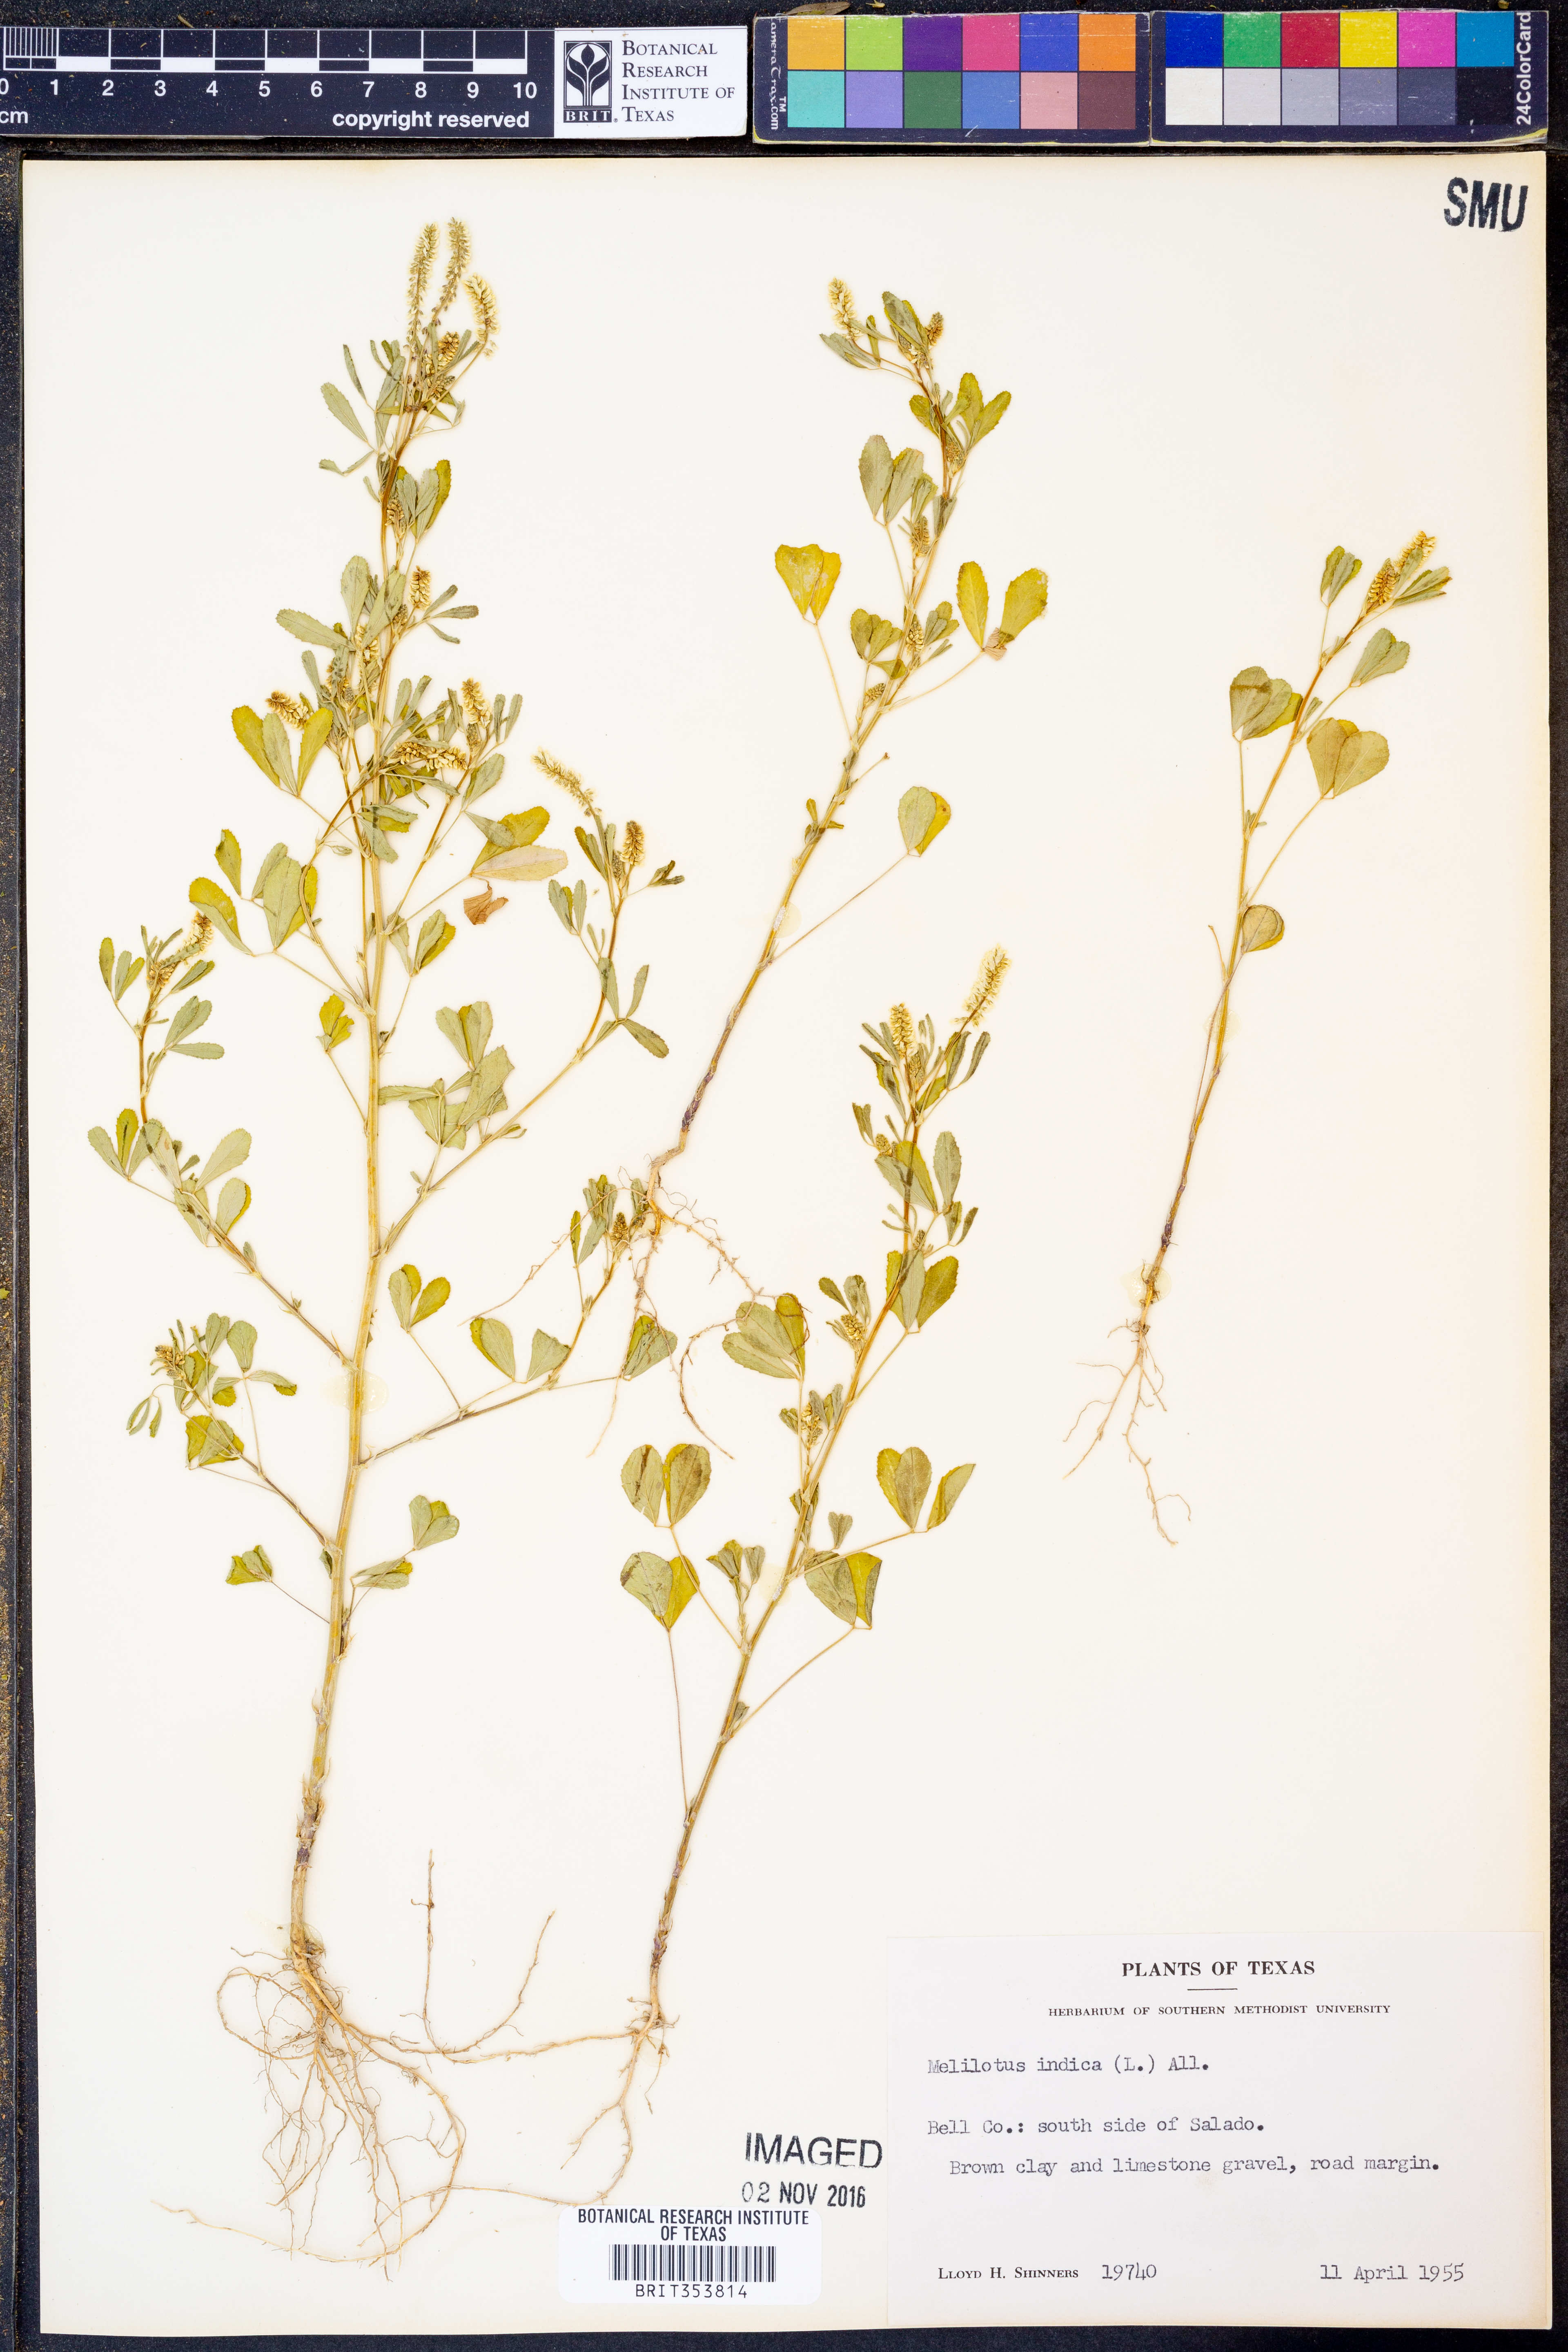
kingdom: Plantae
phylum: Tracheophyta
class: Magnoliopsida
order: Fabales
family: Fabaceae
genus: Melilotus
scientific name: Melilotus indicus
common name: Small melilot
